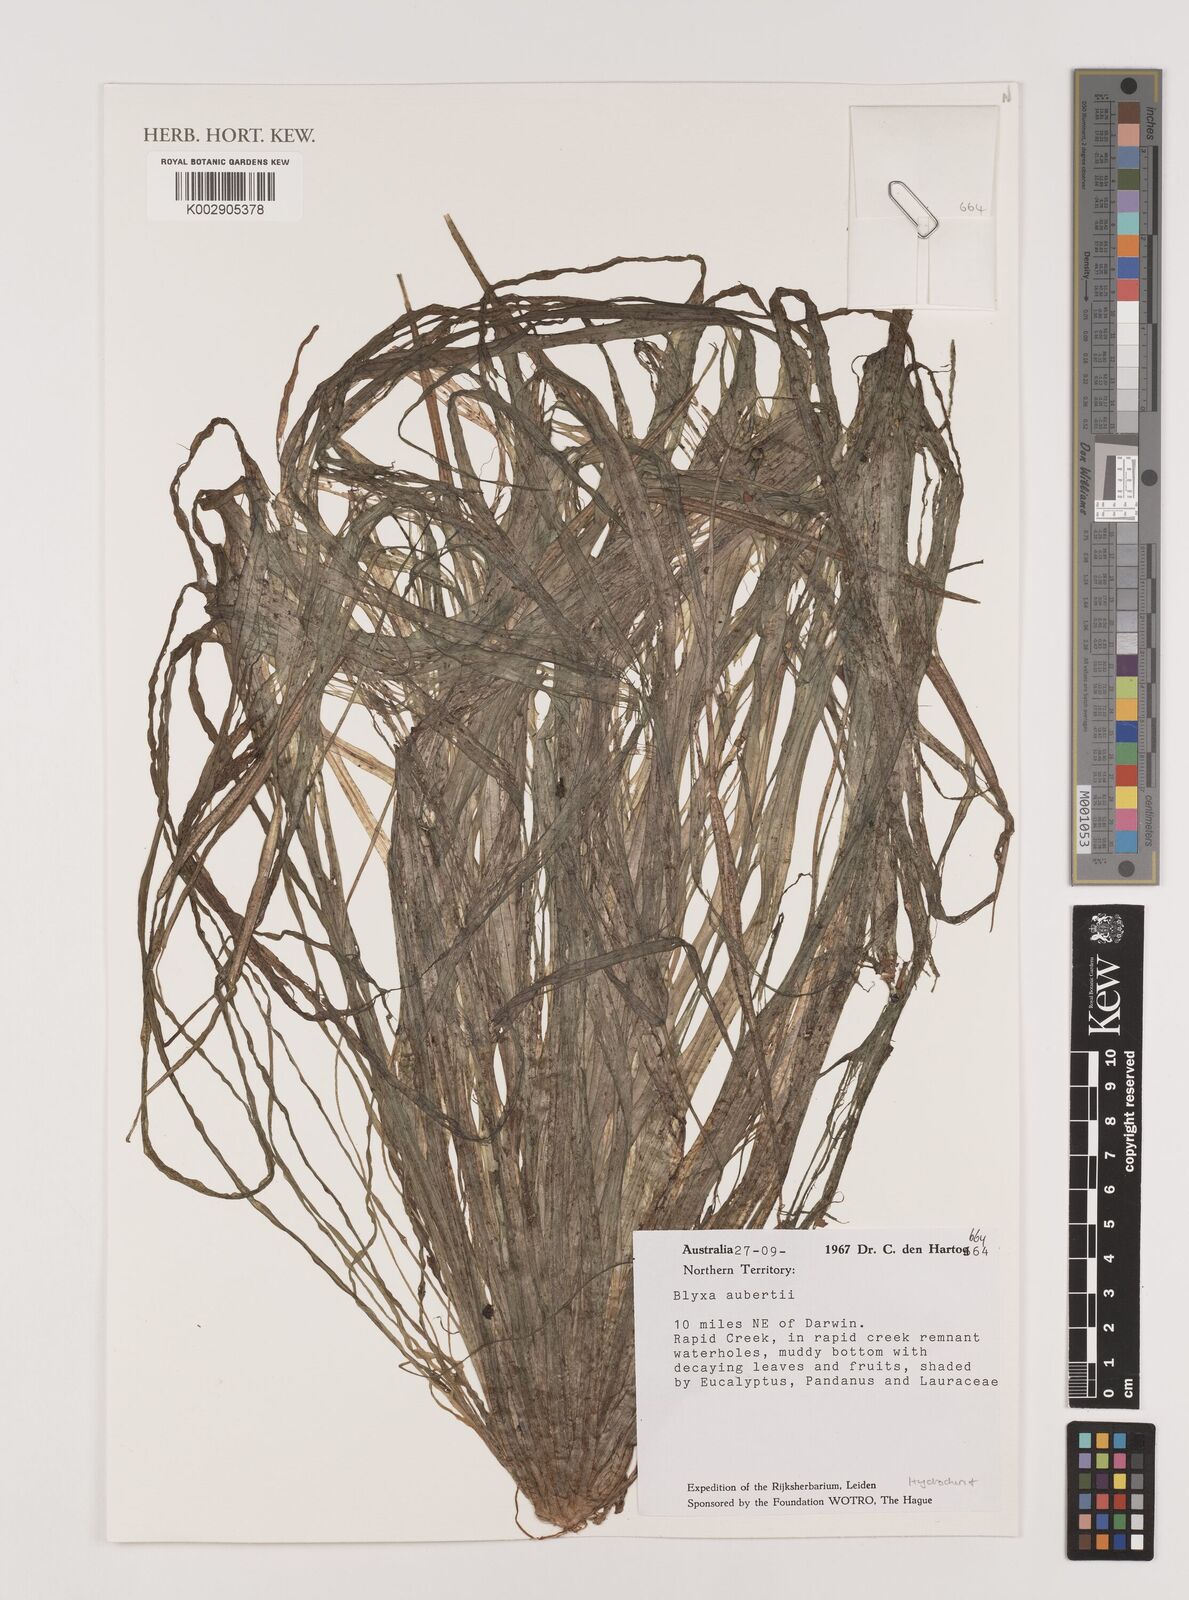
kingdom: Plantae
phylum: Tracheophyta
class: Liliopsida
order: Alismatales
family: Hydrocharitaceae
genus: Blyxa
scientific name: Blyxa aubertii
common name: Roundfruit blyxa
